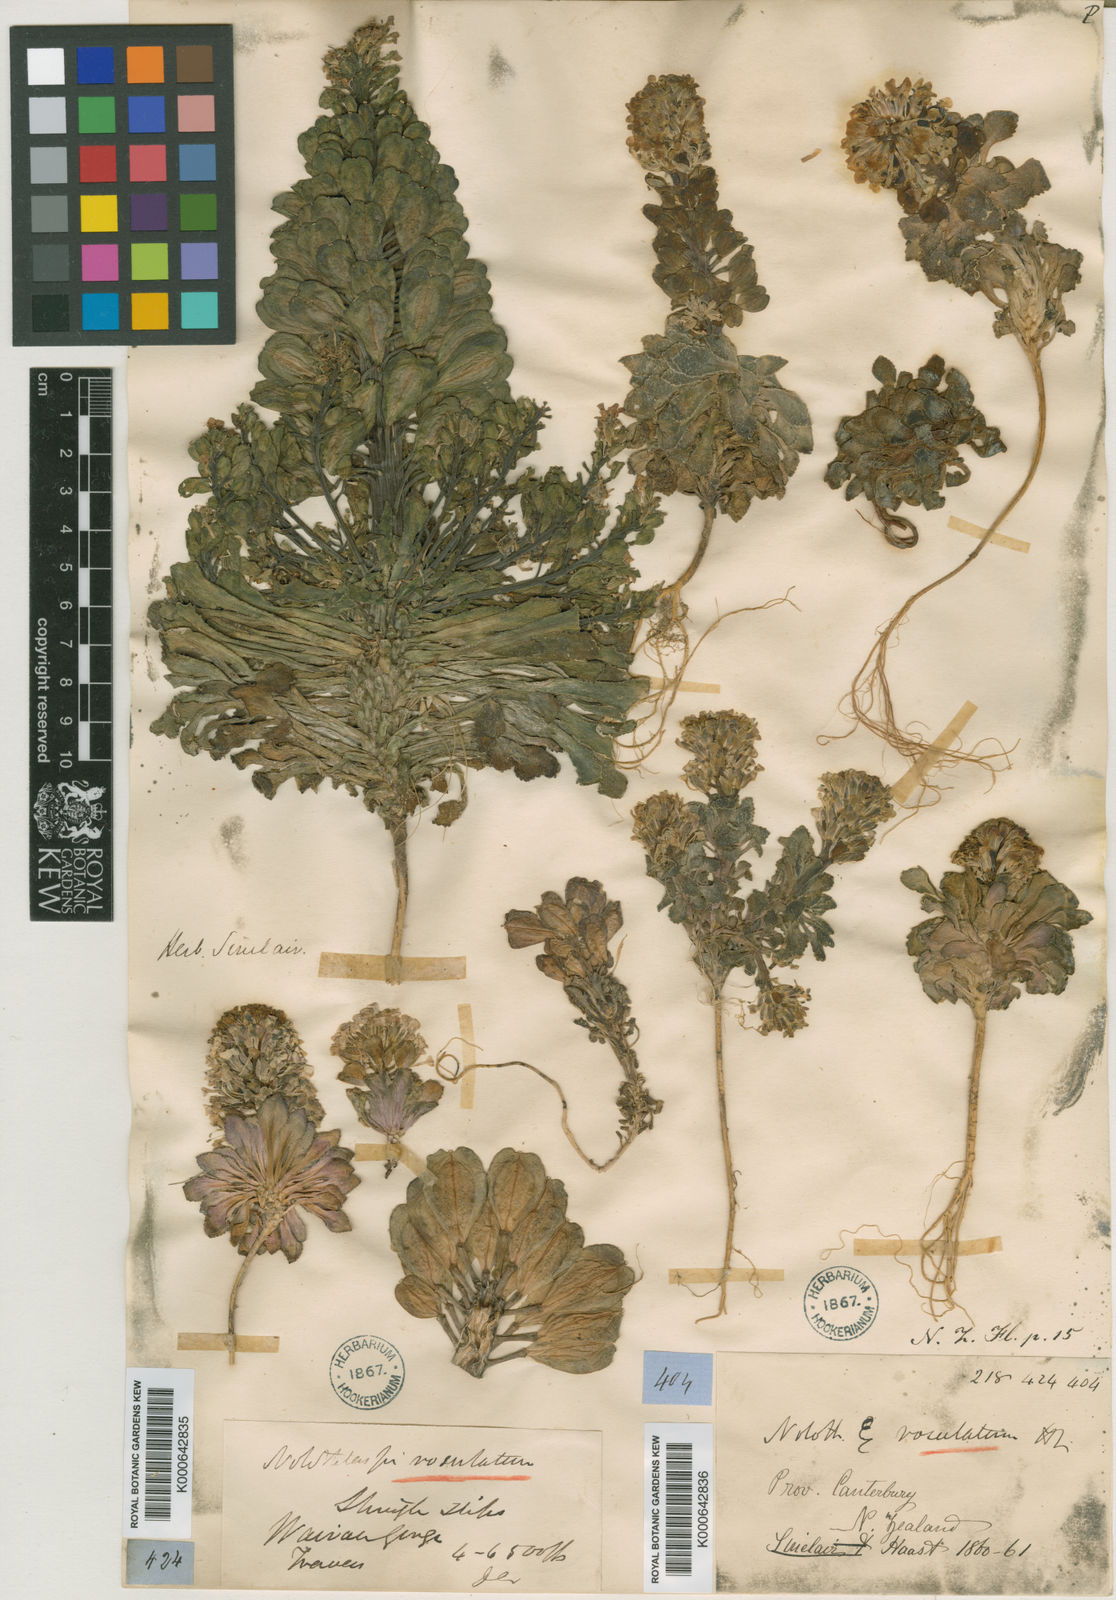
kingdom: Plantae
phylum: Tracheophyta
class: Magnoliopsida
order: Brassicales
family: Brassicaceae
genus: Notothlaspi
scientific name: Notothlaspi rosulatum
